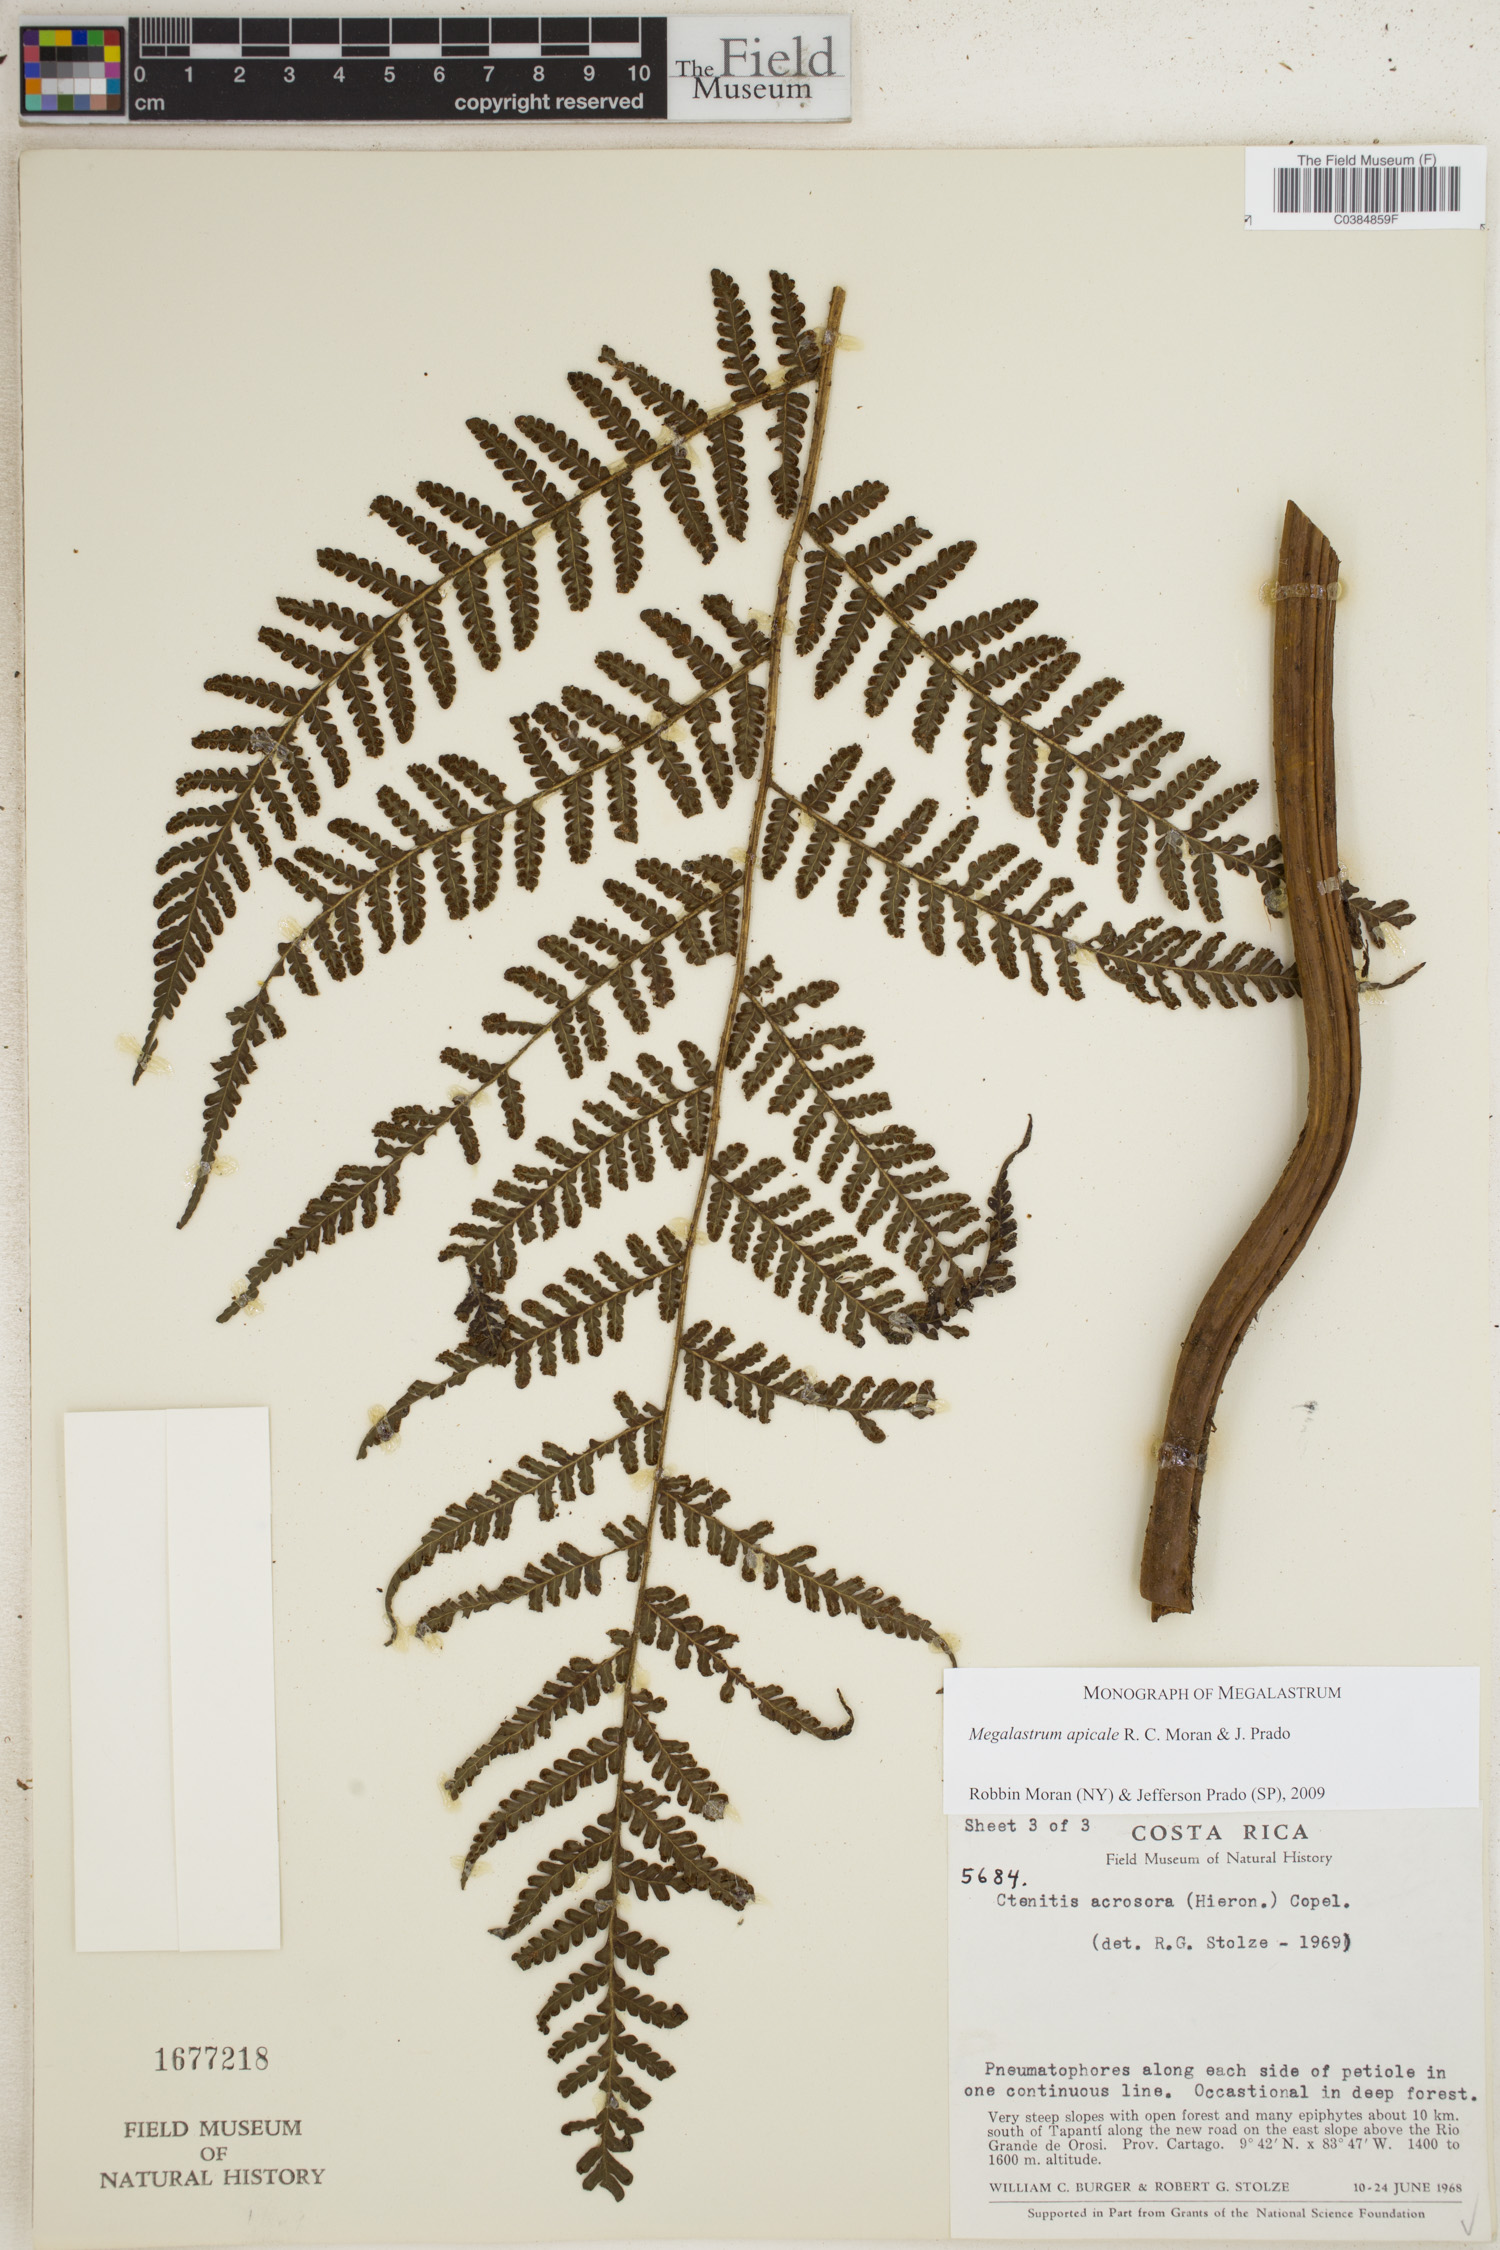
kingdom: Plantae
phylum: Tracheophyta
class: Polypodiopsida
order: Polypodiales
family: Dryopteridaceae
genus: Megalastrum
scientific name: Megalastrum apicale
